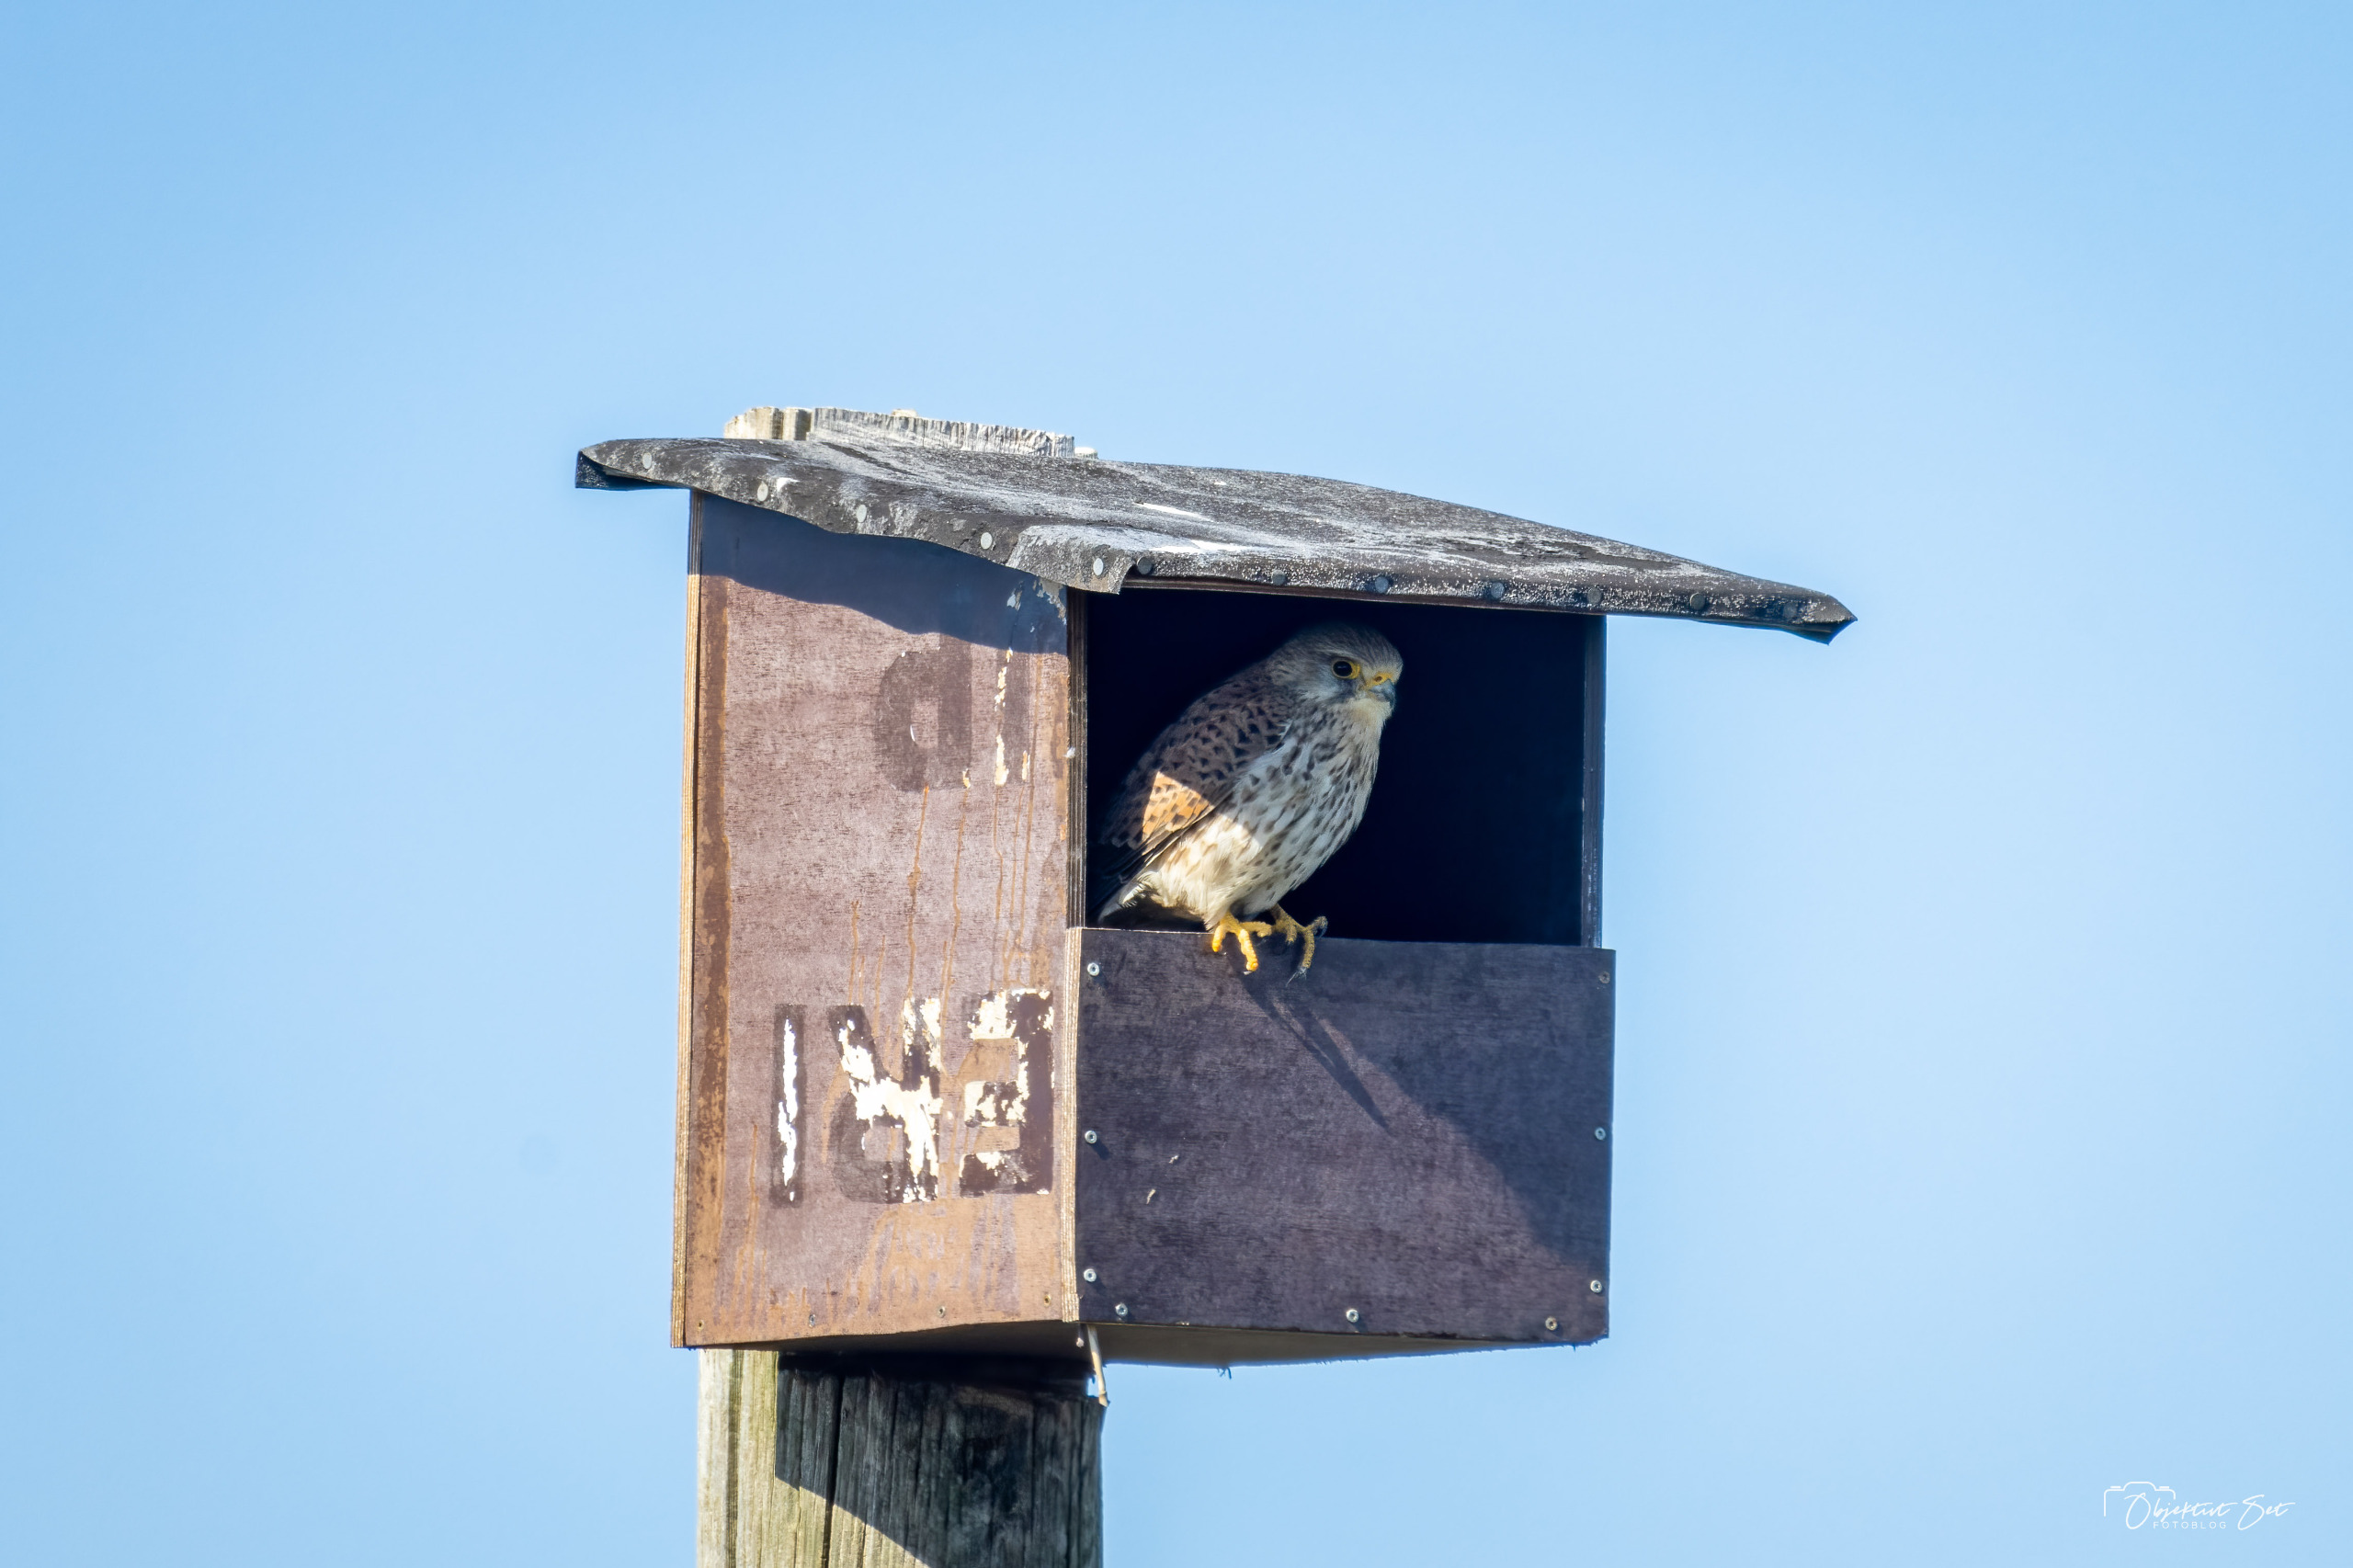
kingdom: Animalia
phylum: Chordata
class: Aves
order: Falconiformes
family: Falconidae
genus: Falco
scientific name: Falco tinnunculus
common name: Tårnfalk
